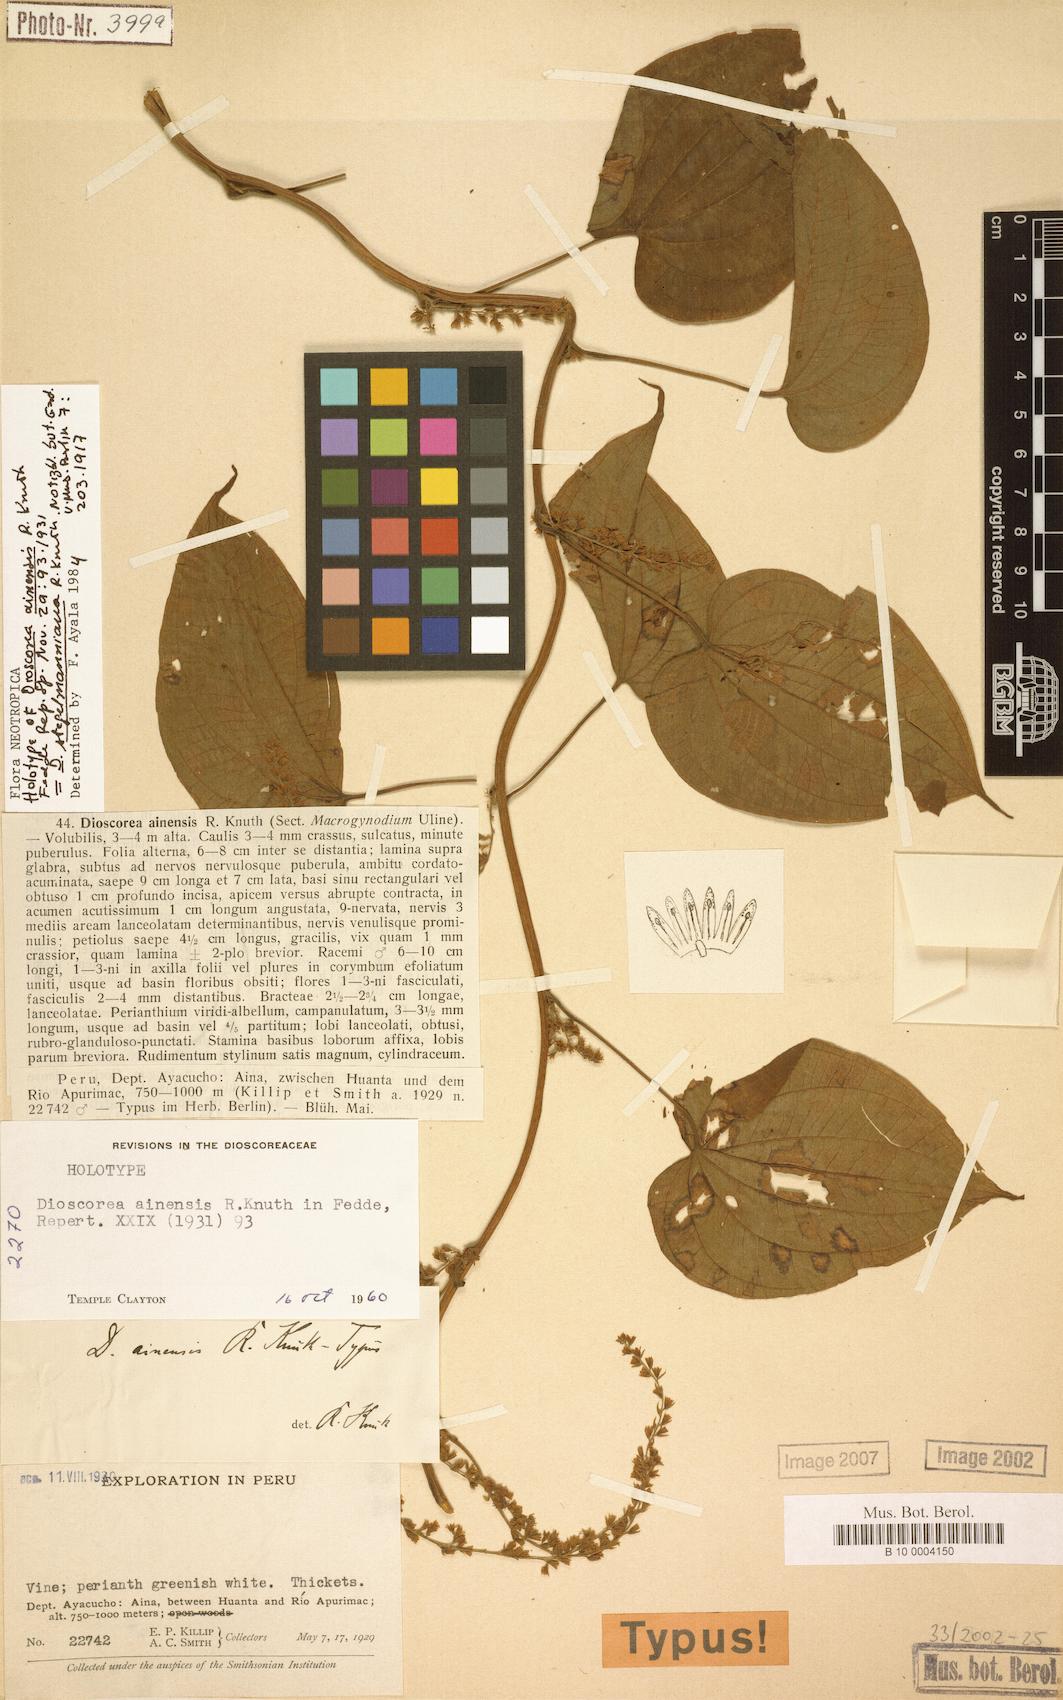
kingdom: Plantae
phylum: Tracheophyta
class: Liliopsida
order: Dioscoreales
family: Dioscoreaceae
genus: Dioscorea
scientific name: Dioscorea stegelmanniana
